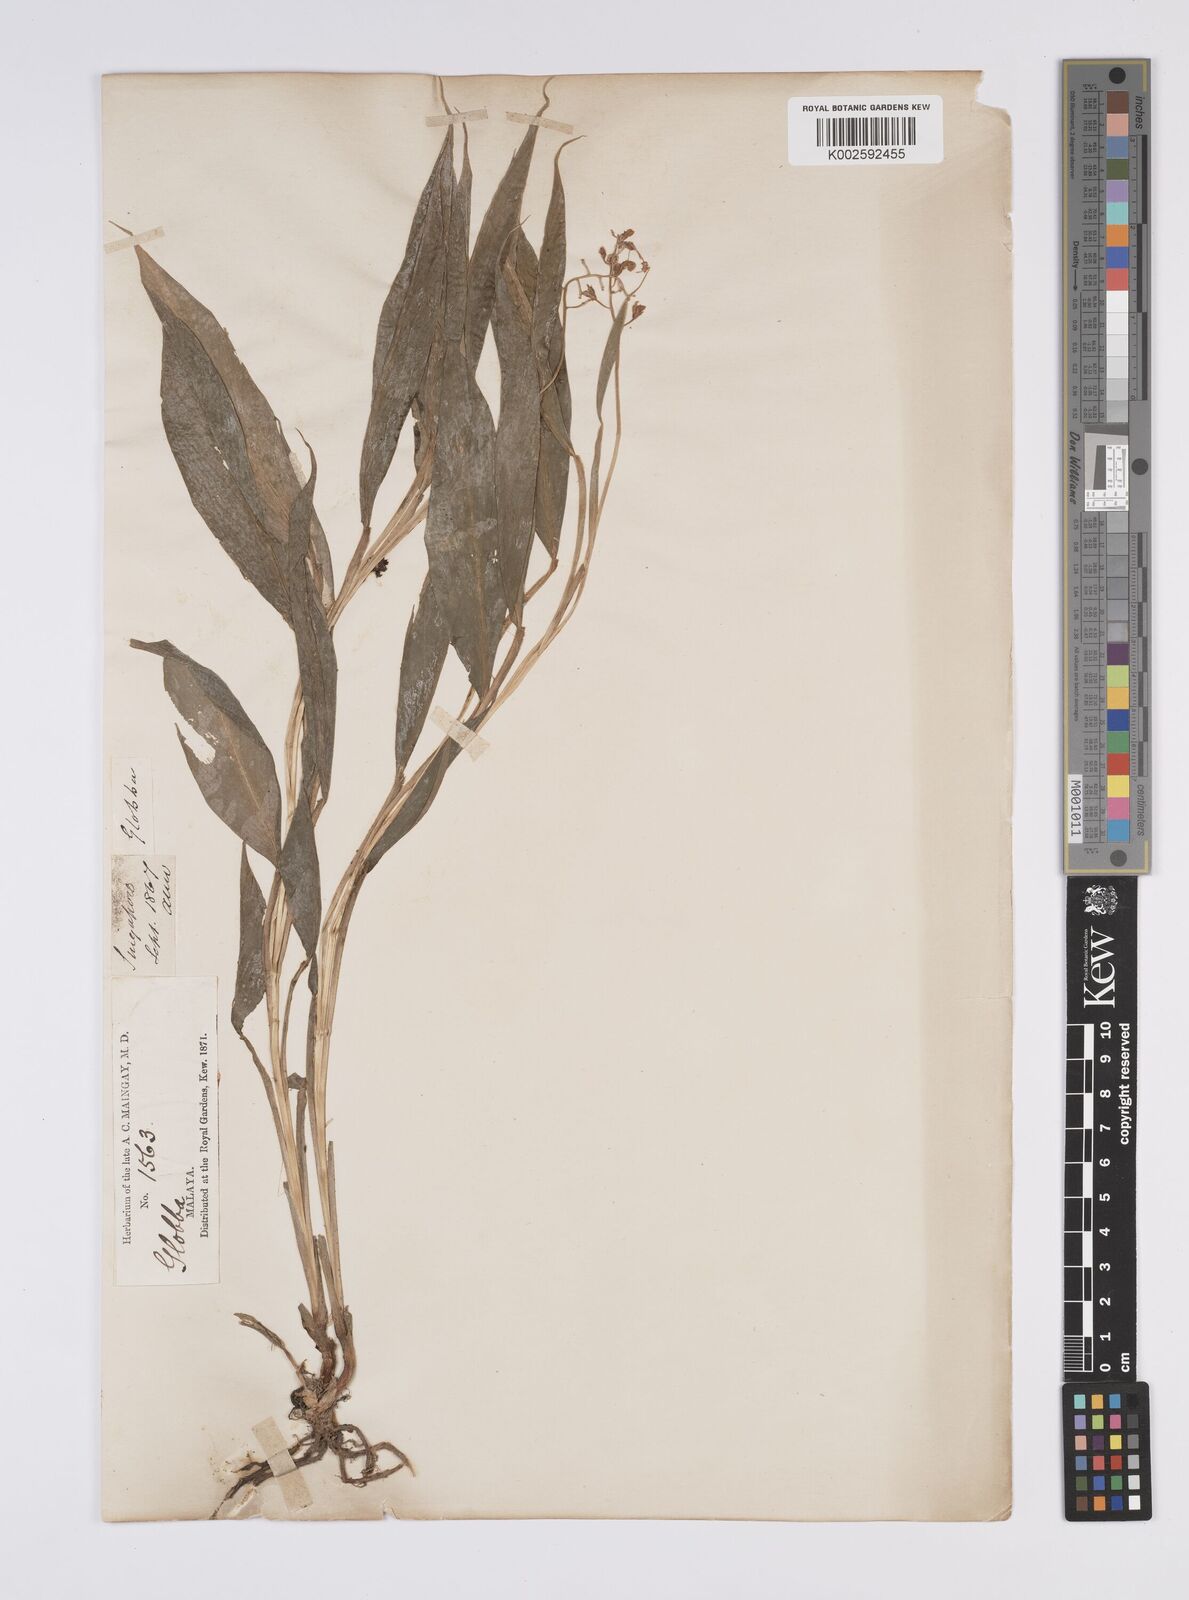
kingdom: Plantae
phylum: Tracheophyta
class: Liliopsida
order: Zingiberales
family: Zingiberaceae
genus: Globba
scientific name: Globba pendula
